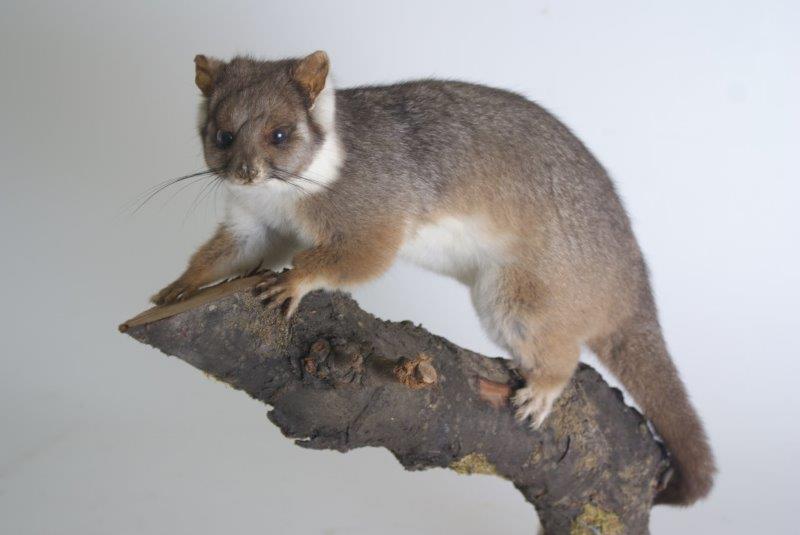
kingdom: Animalia
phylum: Chordata
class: Mammalia
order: Diprotodontia
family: Phalangeridae
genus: Trichosurus
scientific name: Trichosurus vulpecula
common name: Common Brushtail
